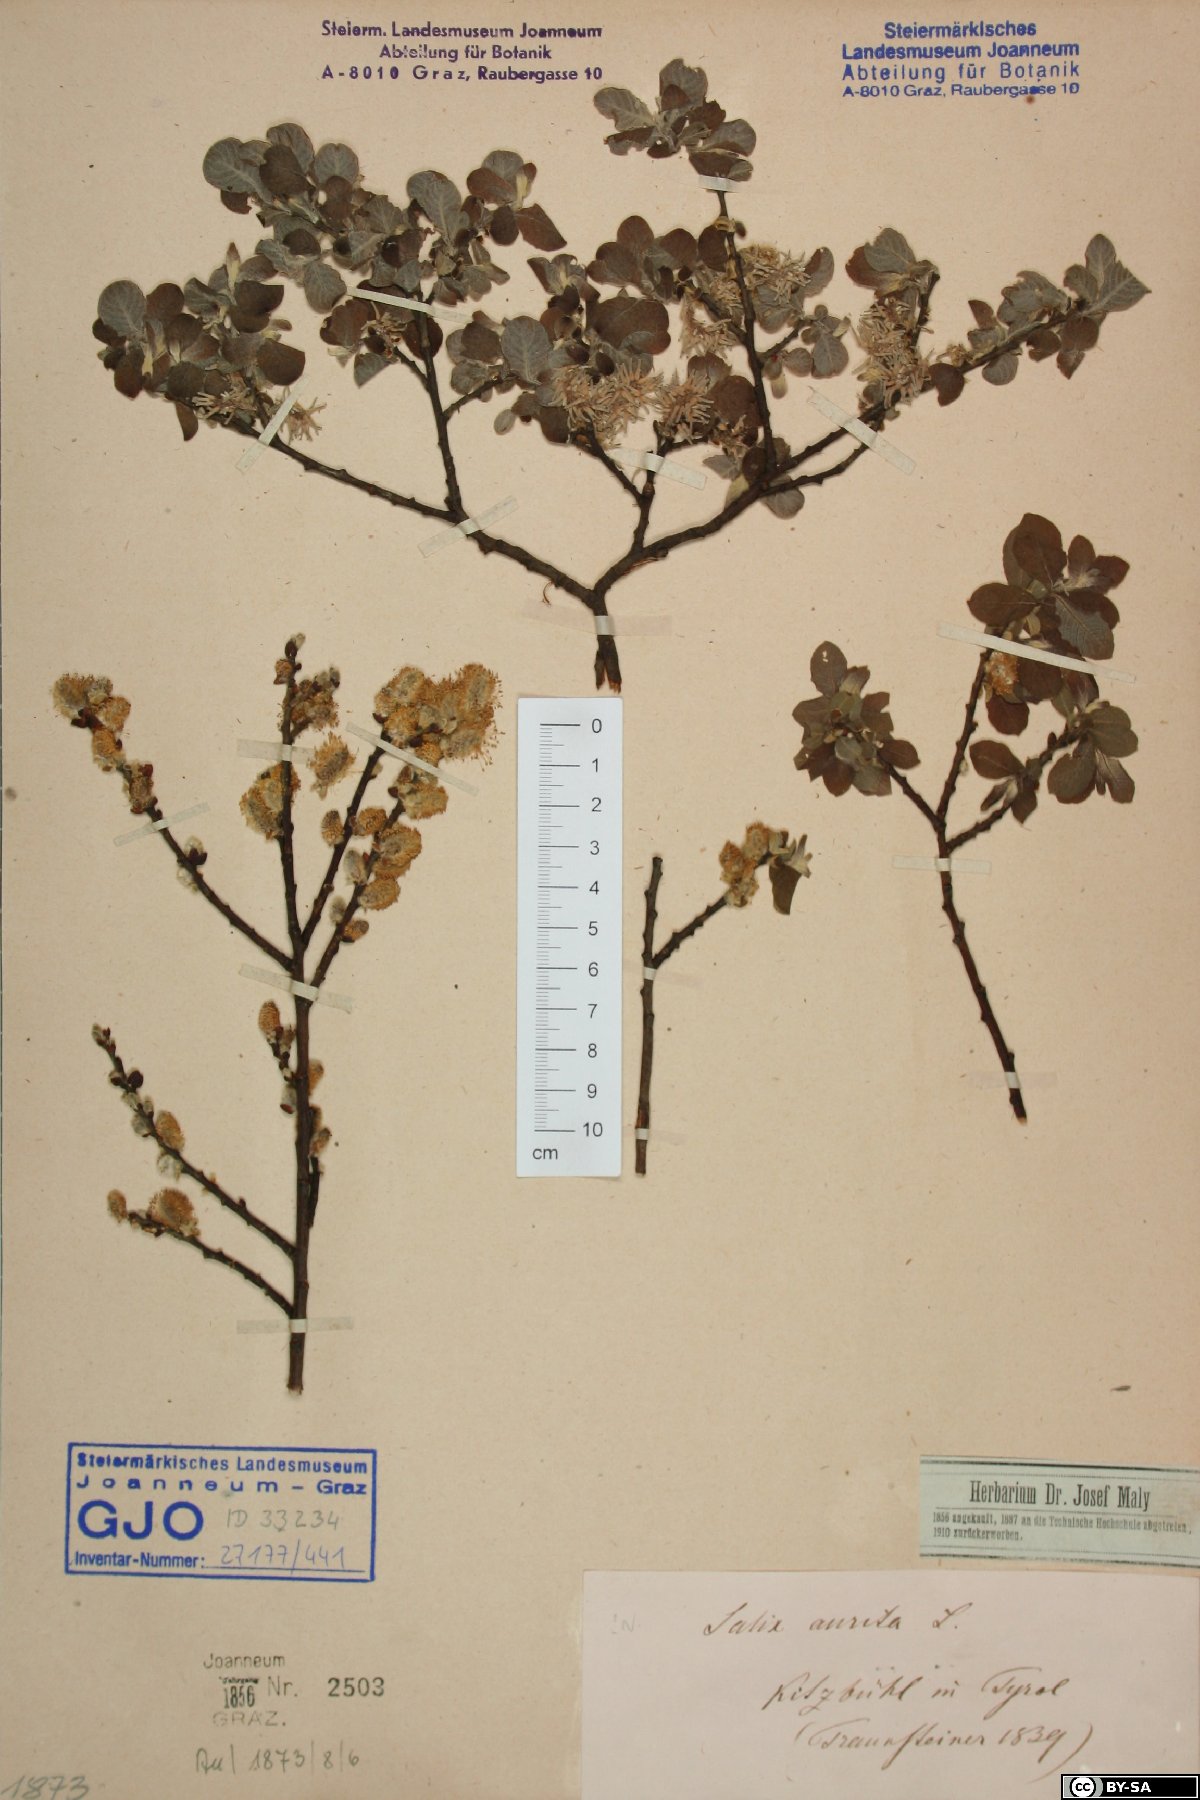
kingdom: Plantae
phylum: Tracheophyta
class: Magnoliopsida
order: Malpighiales
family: Salicaceae
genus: Salix
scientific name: Salix aurita
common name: Eared willow
